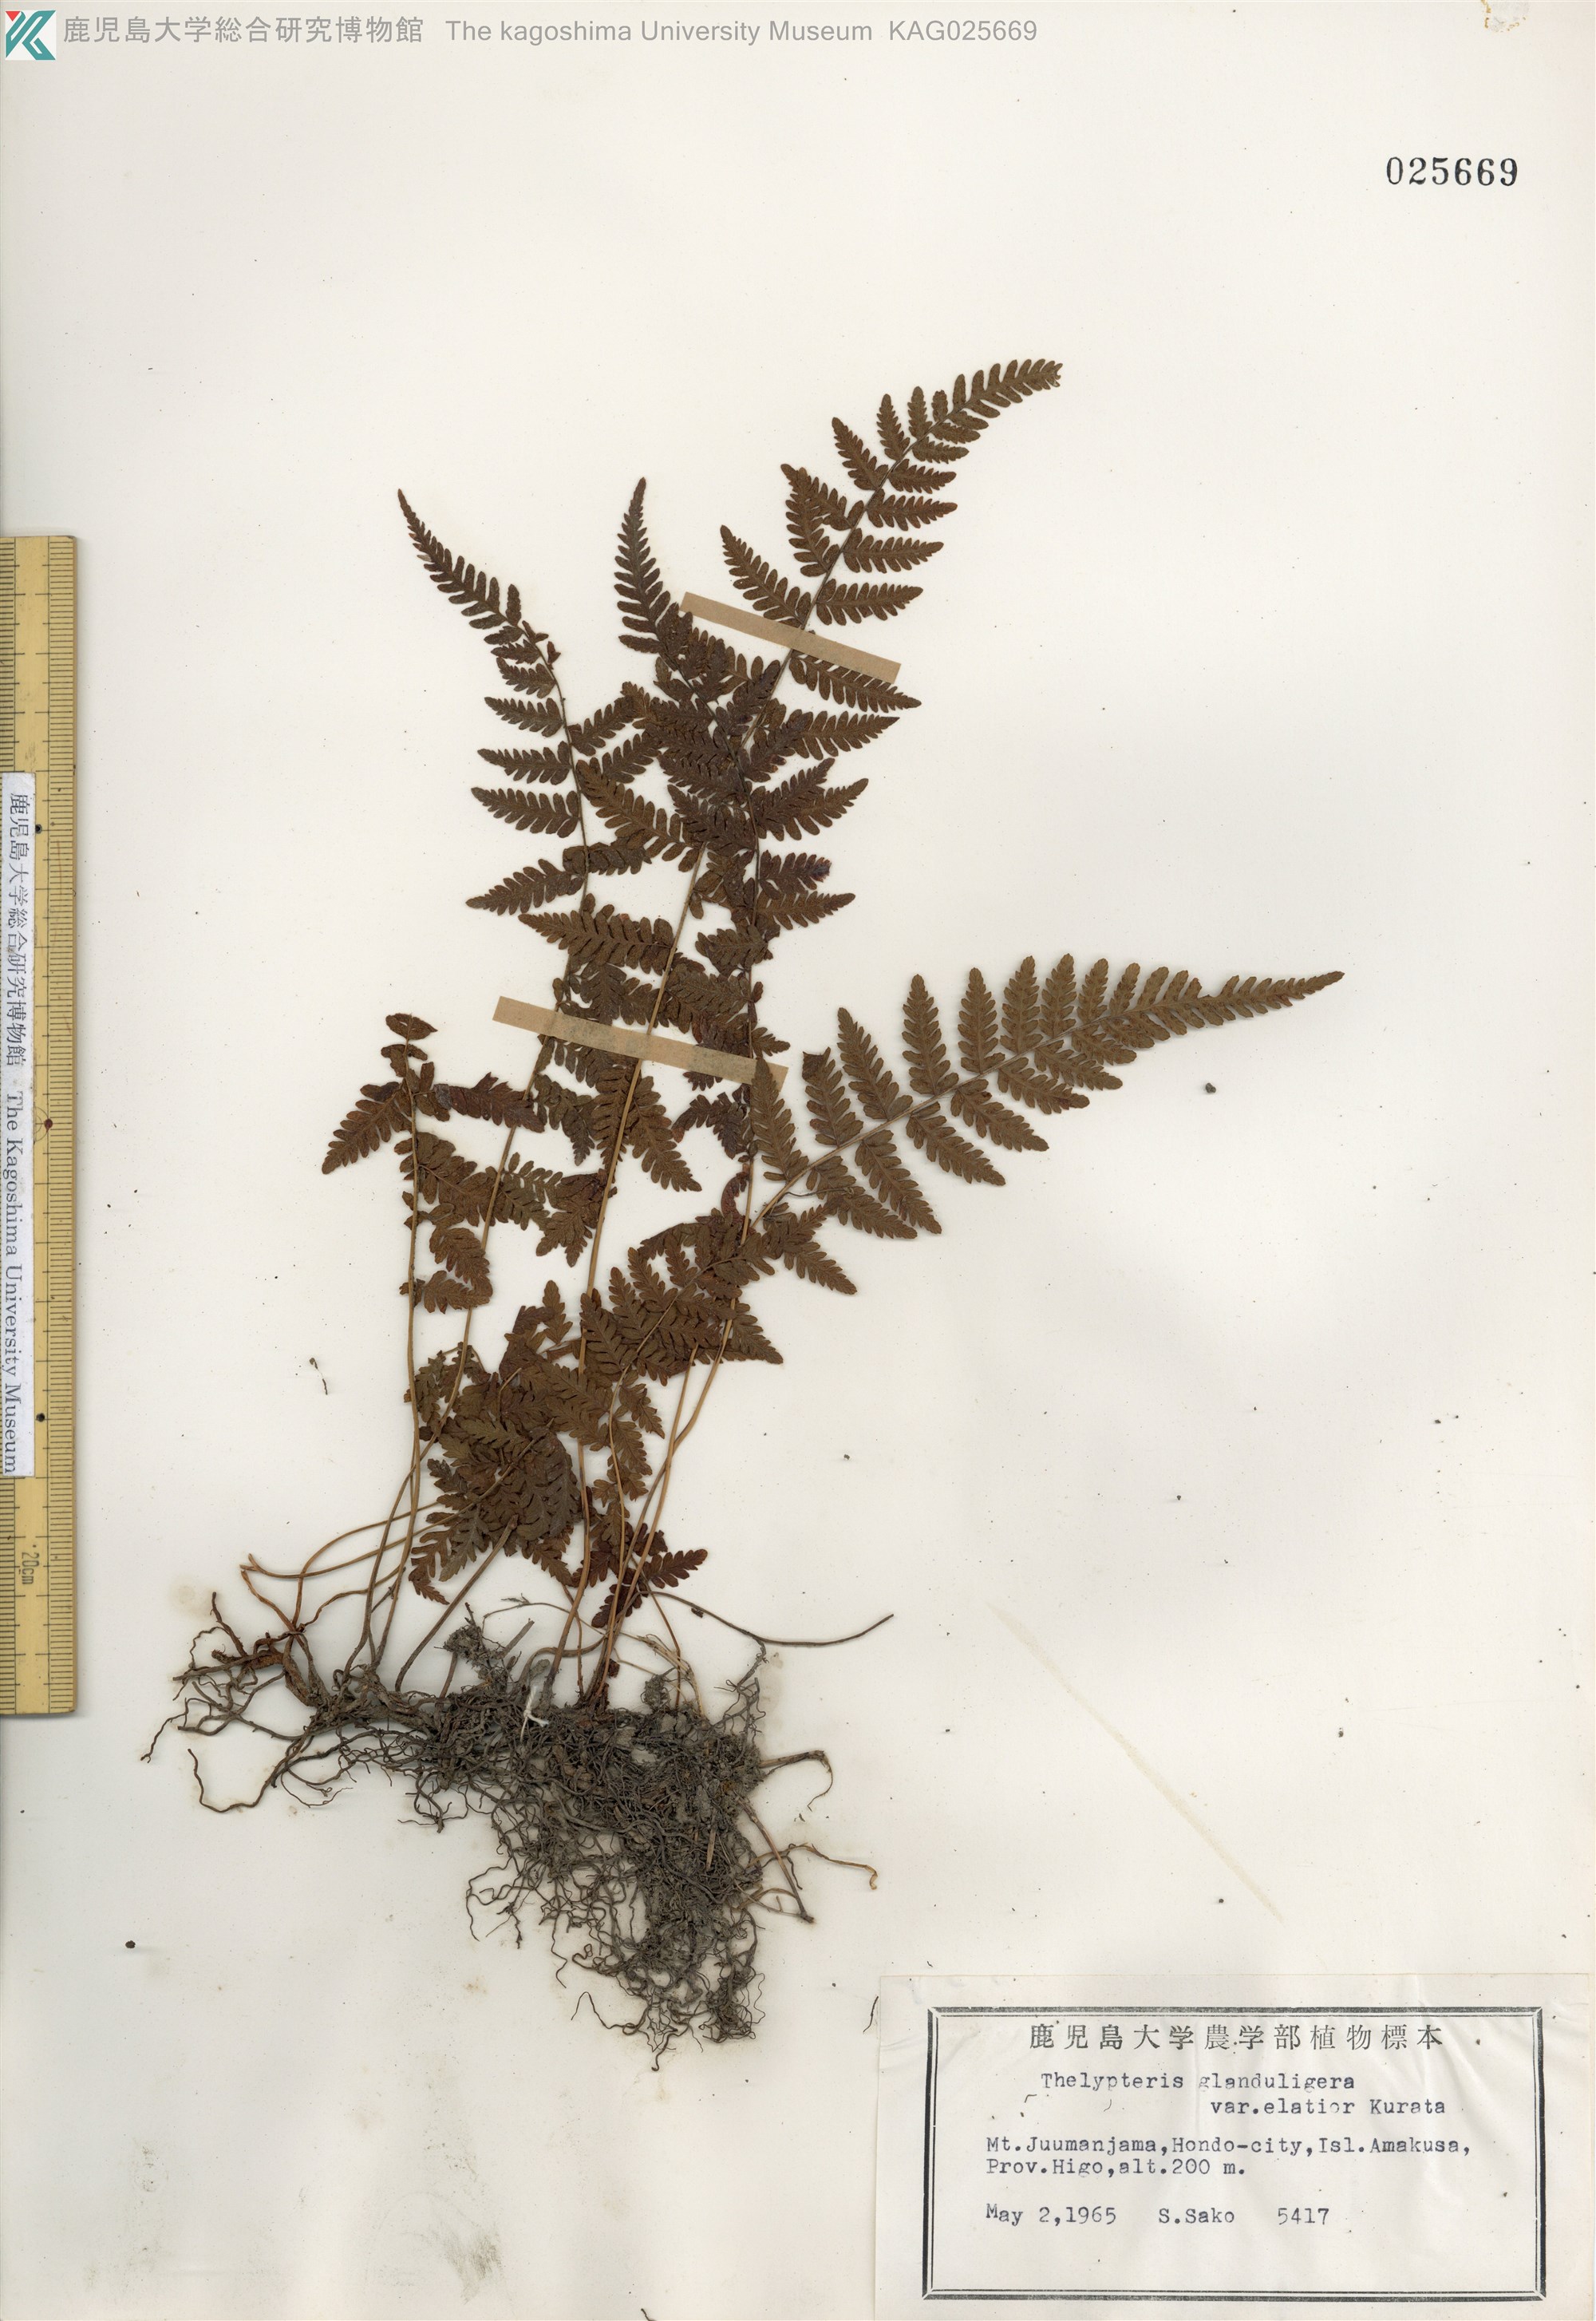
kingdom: Plantae
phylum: Tracheophyta
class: Polypodiopsida
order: Polypodiales
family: Thelypteridaceae
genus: Amauropelta
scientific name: Amauropelta angustifrons
